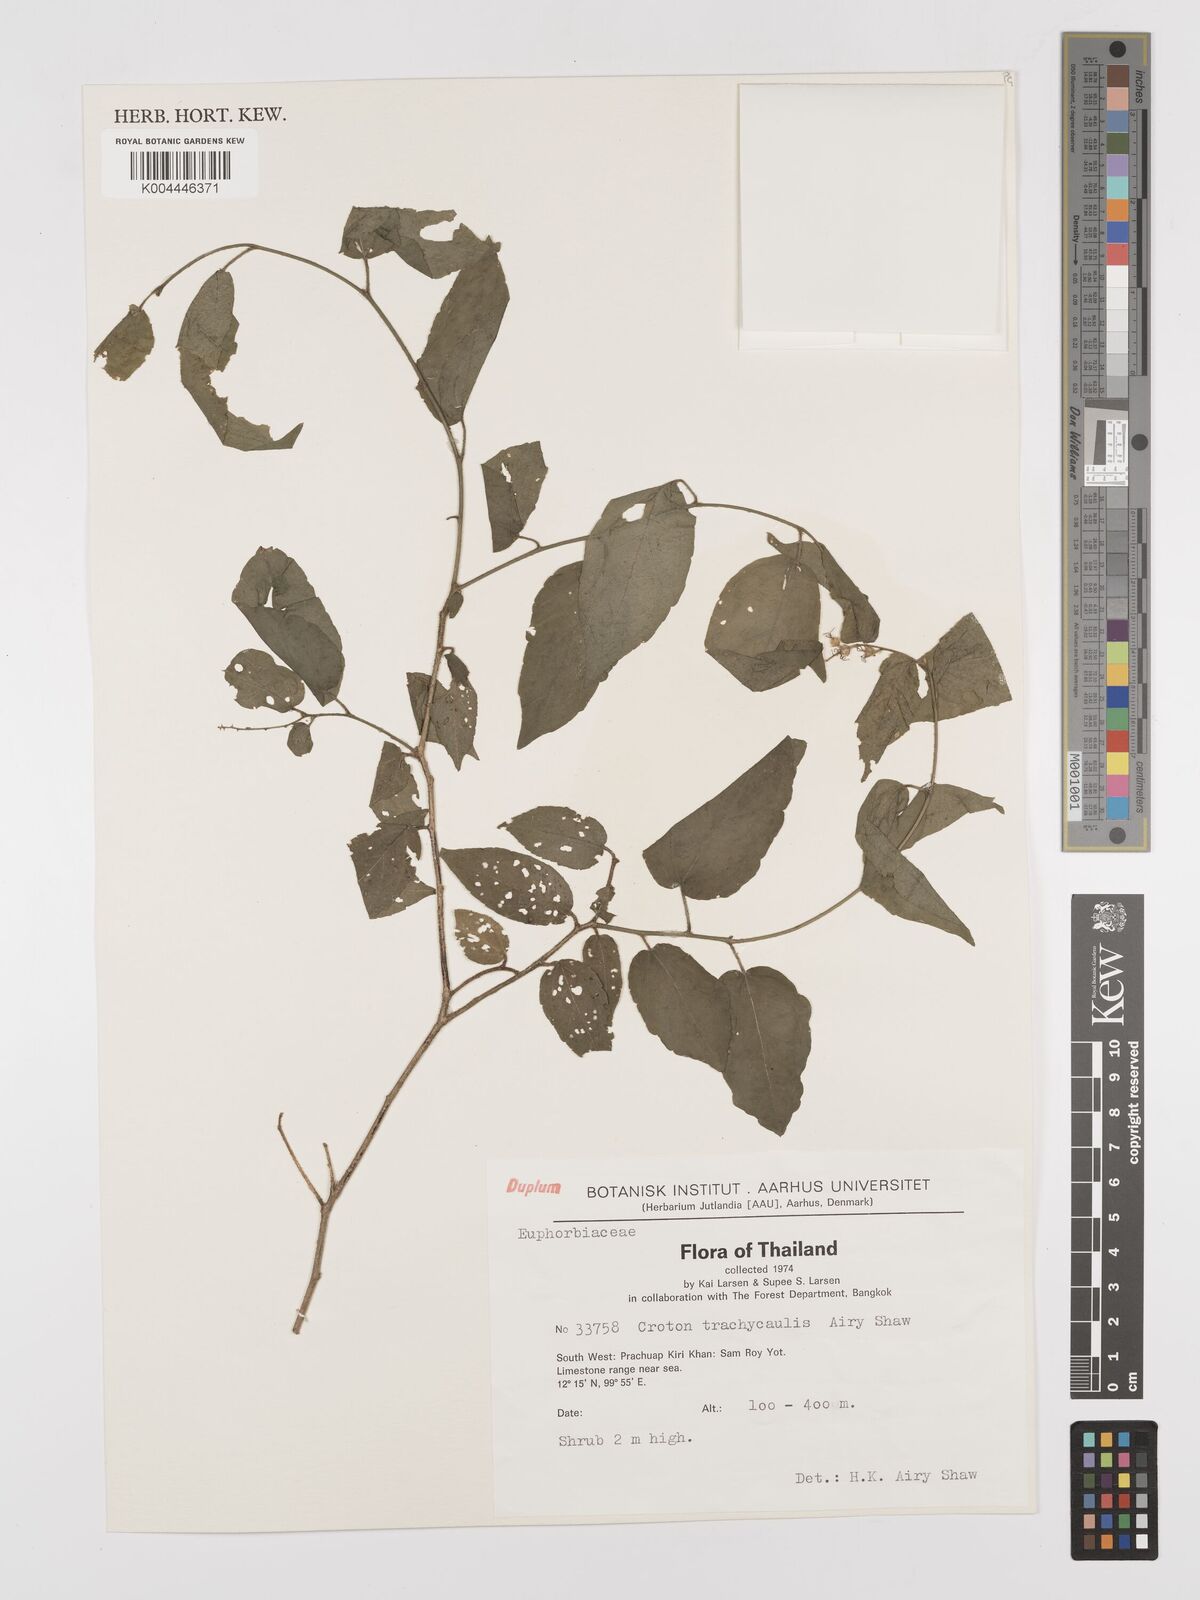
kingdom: Plantae
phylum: Tracheophyta
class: Magnoliopsida
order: Malpighiales
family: Euphorbiaceae
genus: Croton
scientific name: Croton lachnocarpus
